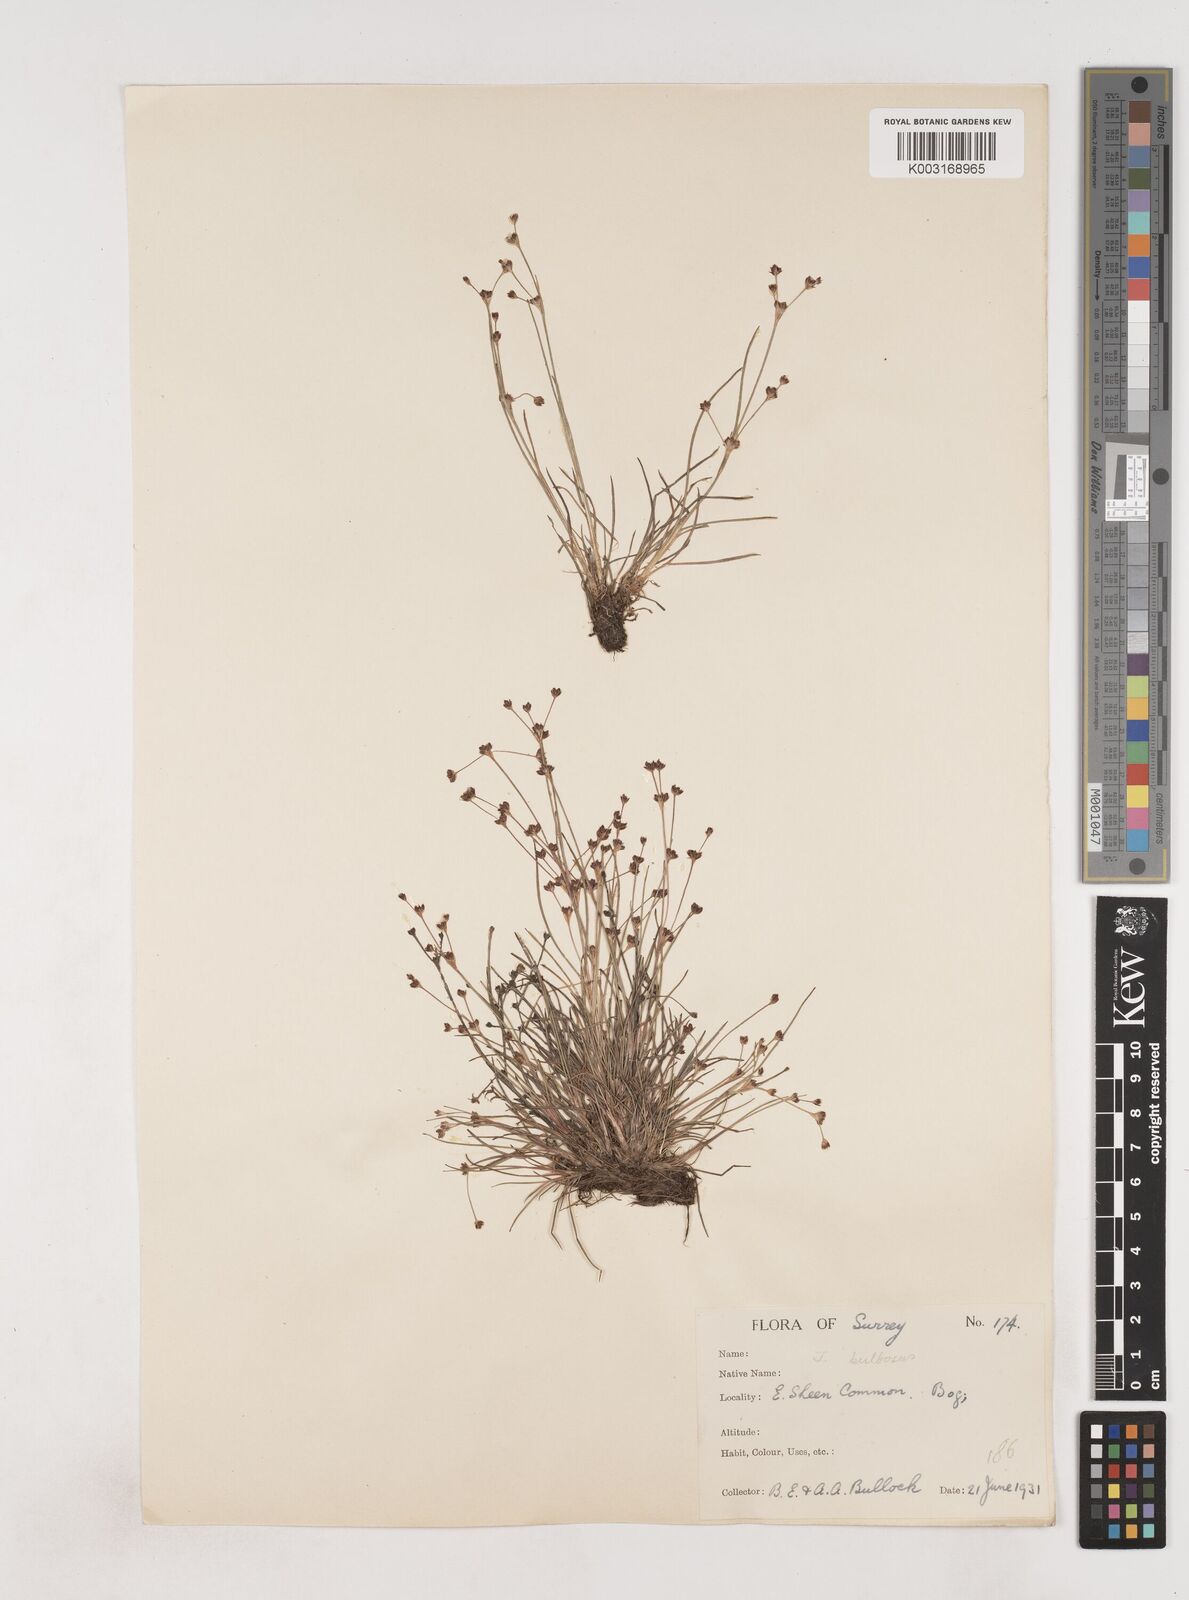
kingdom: Plantae
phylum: Tracheophyta
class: Liliopsida
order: Poales
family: Juncaceae
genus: Juncus
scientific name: Juncus bulbosus
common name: Bulbous rush
